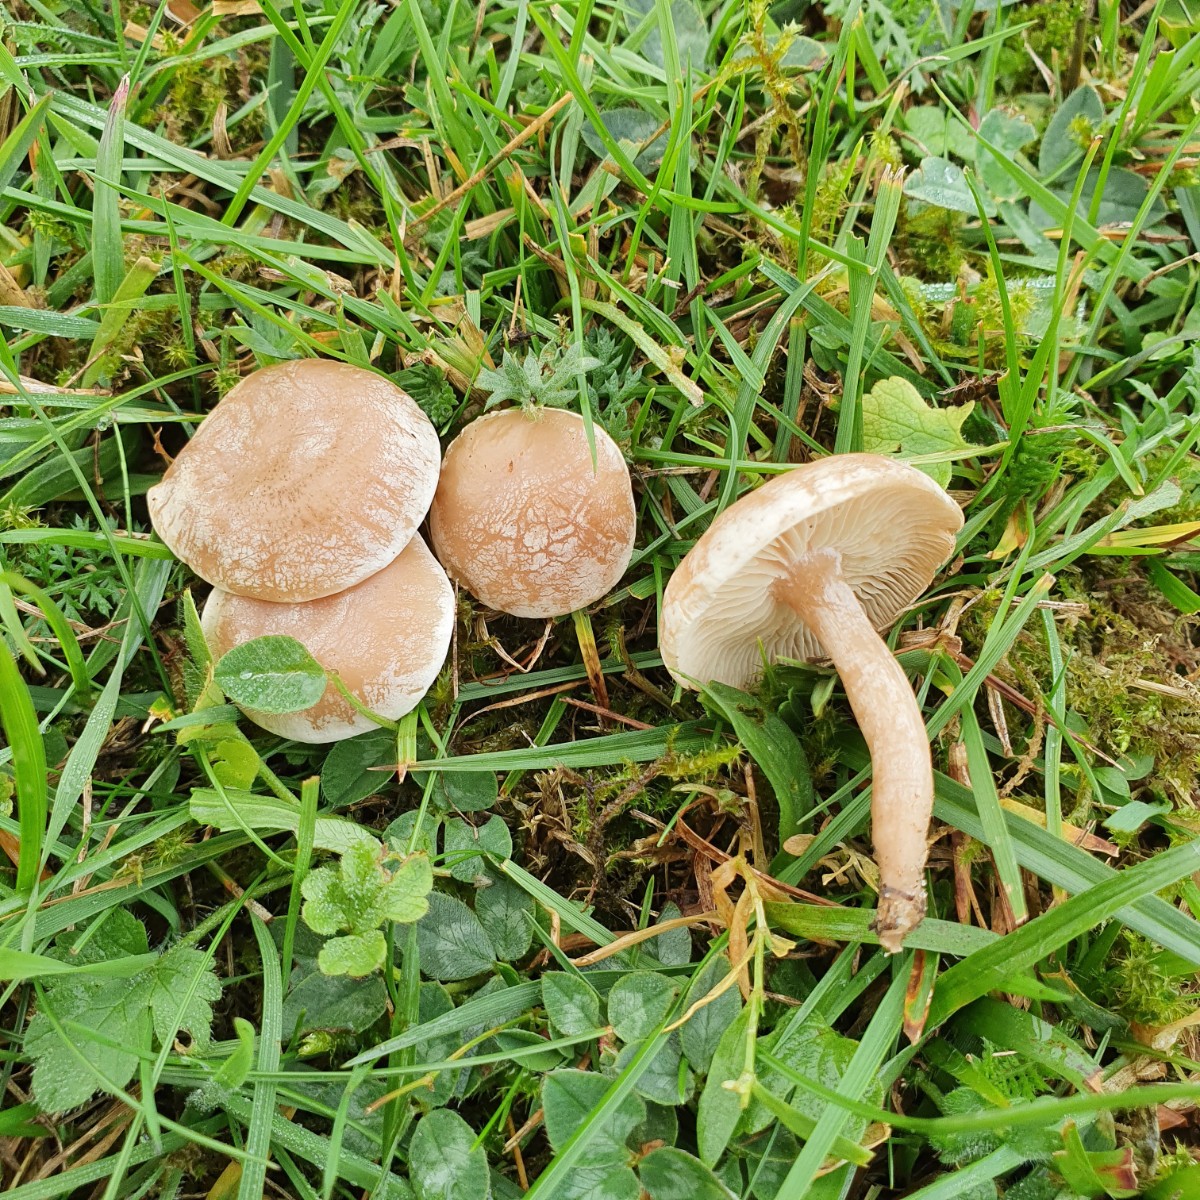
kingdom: Fungi
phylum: Basidiomycota
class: Agaricomycetes
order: Agaricales
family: Tricholomataceae
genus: Clitocybe
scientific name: Clitocybe rivulosa
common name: eng-tragthat
